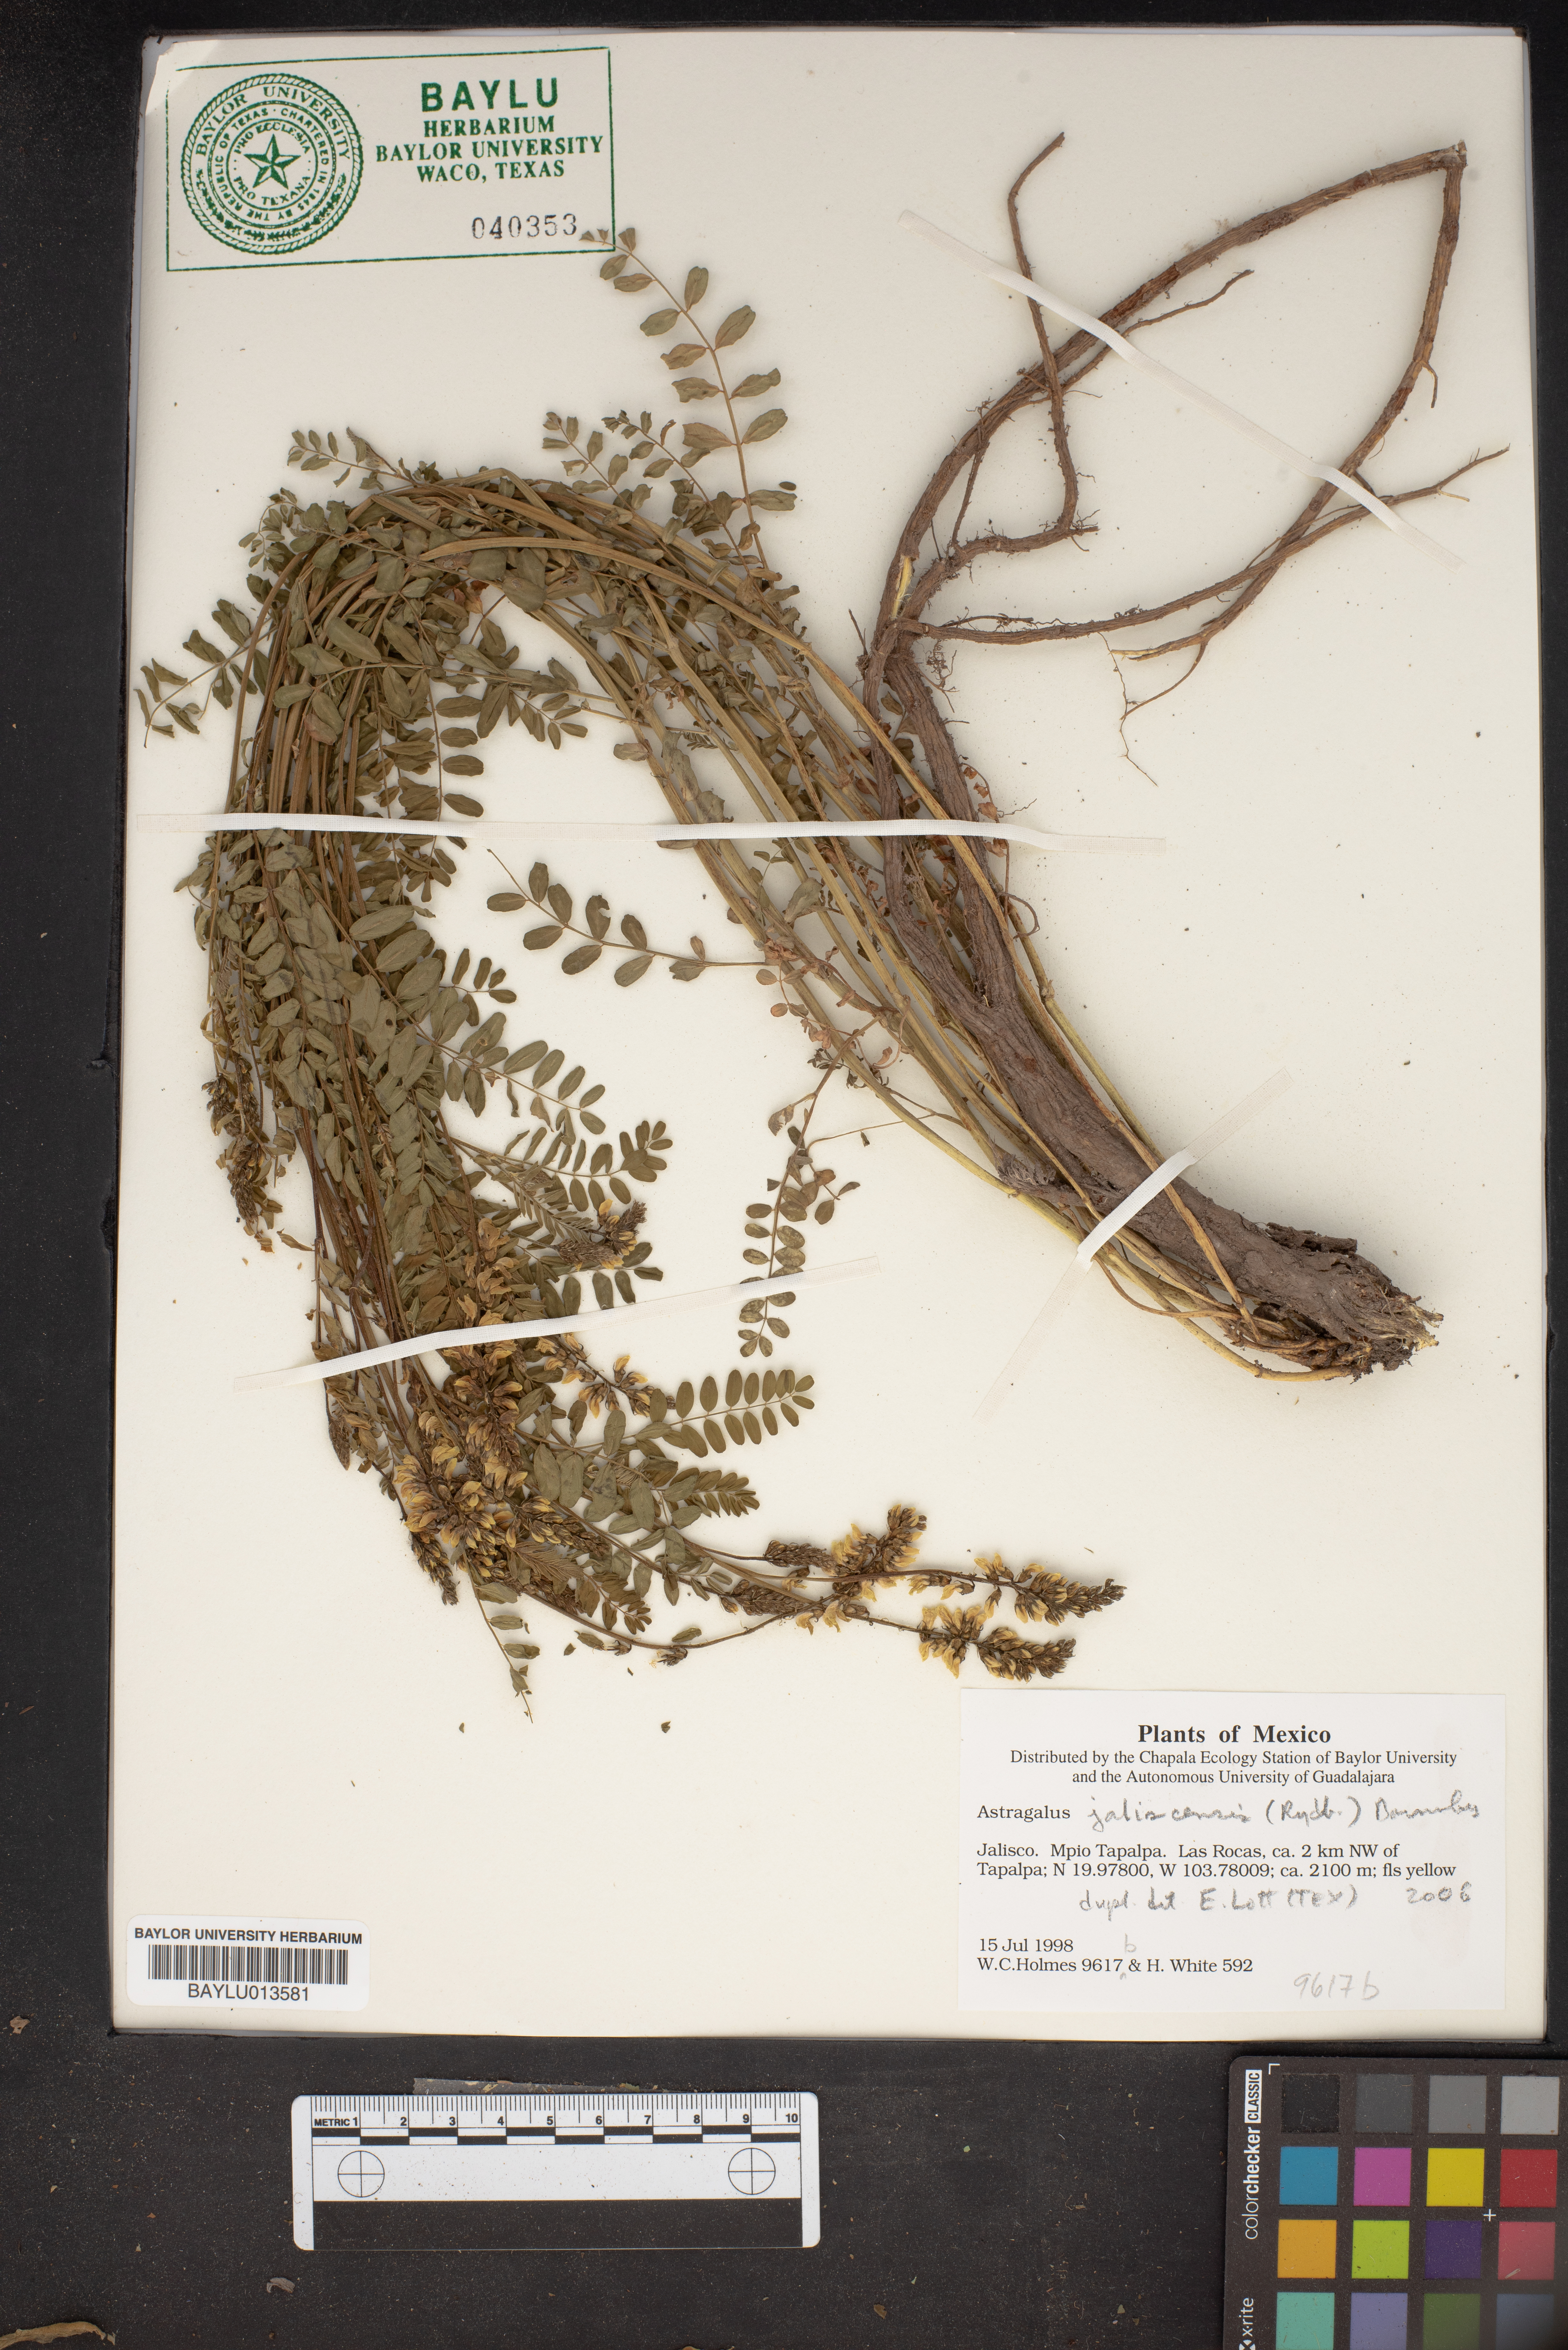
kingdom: Plantae
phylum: Tracheophyta
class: Magnoliopsida
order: Fabales
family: Fabaceae
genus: Astragalus
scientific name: Astragalus jaliscensis
